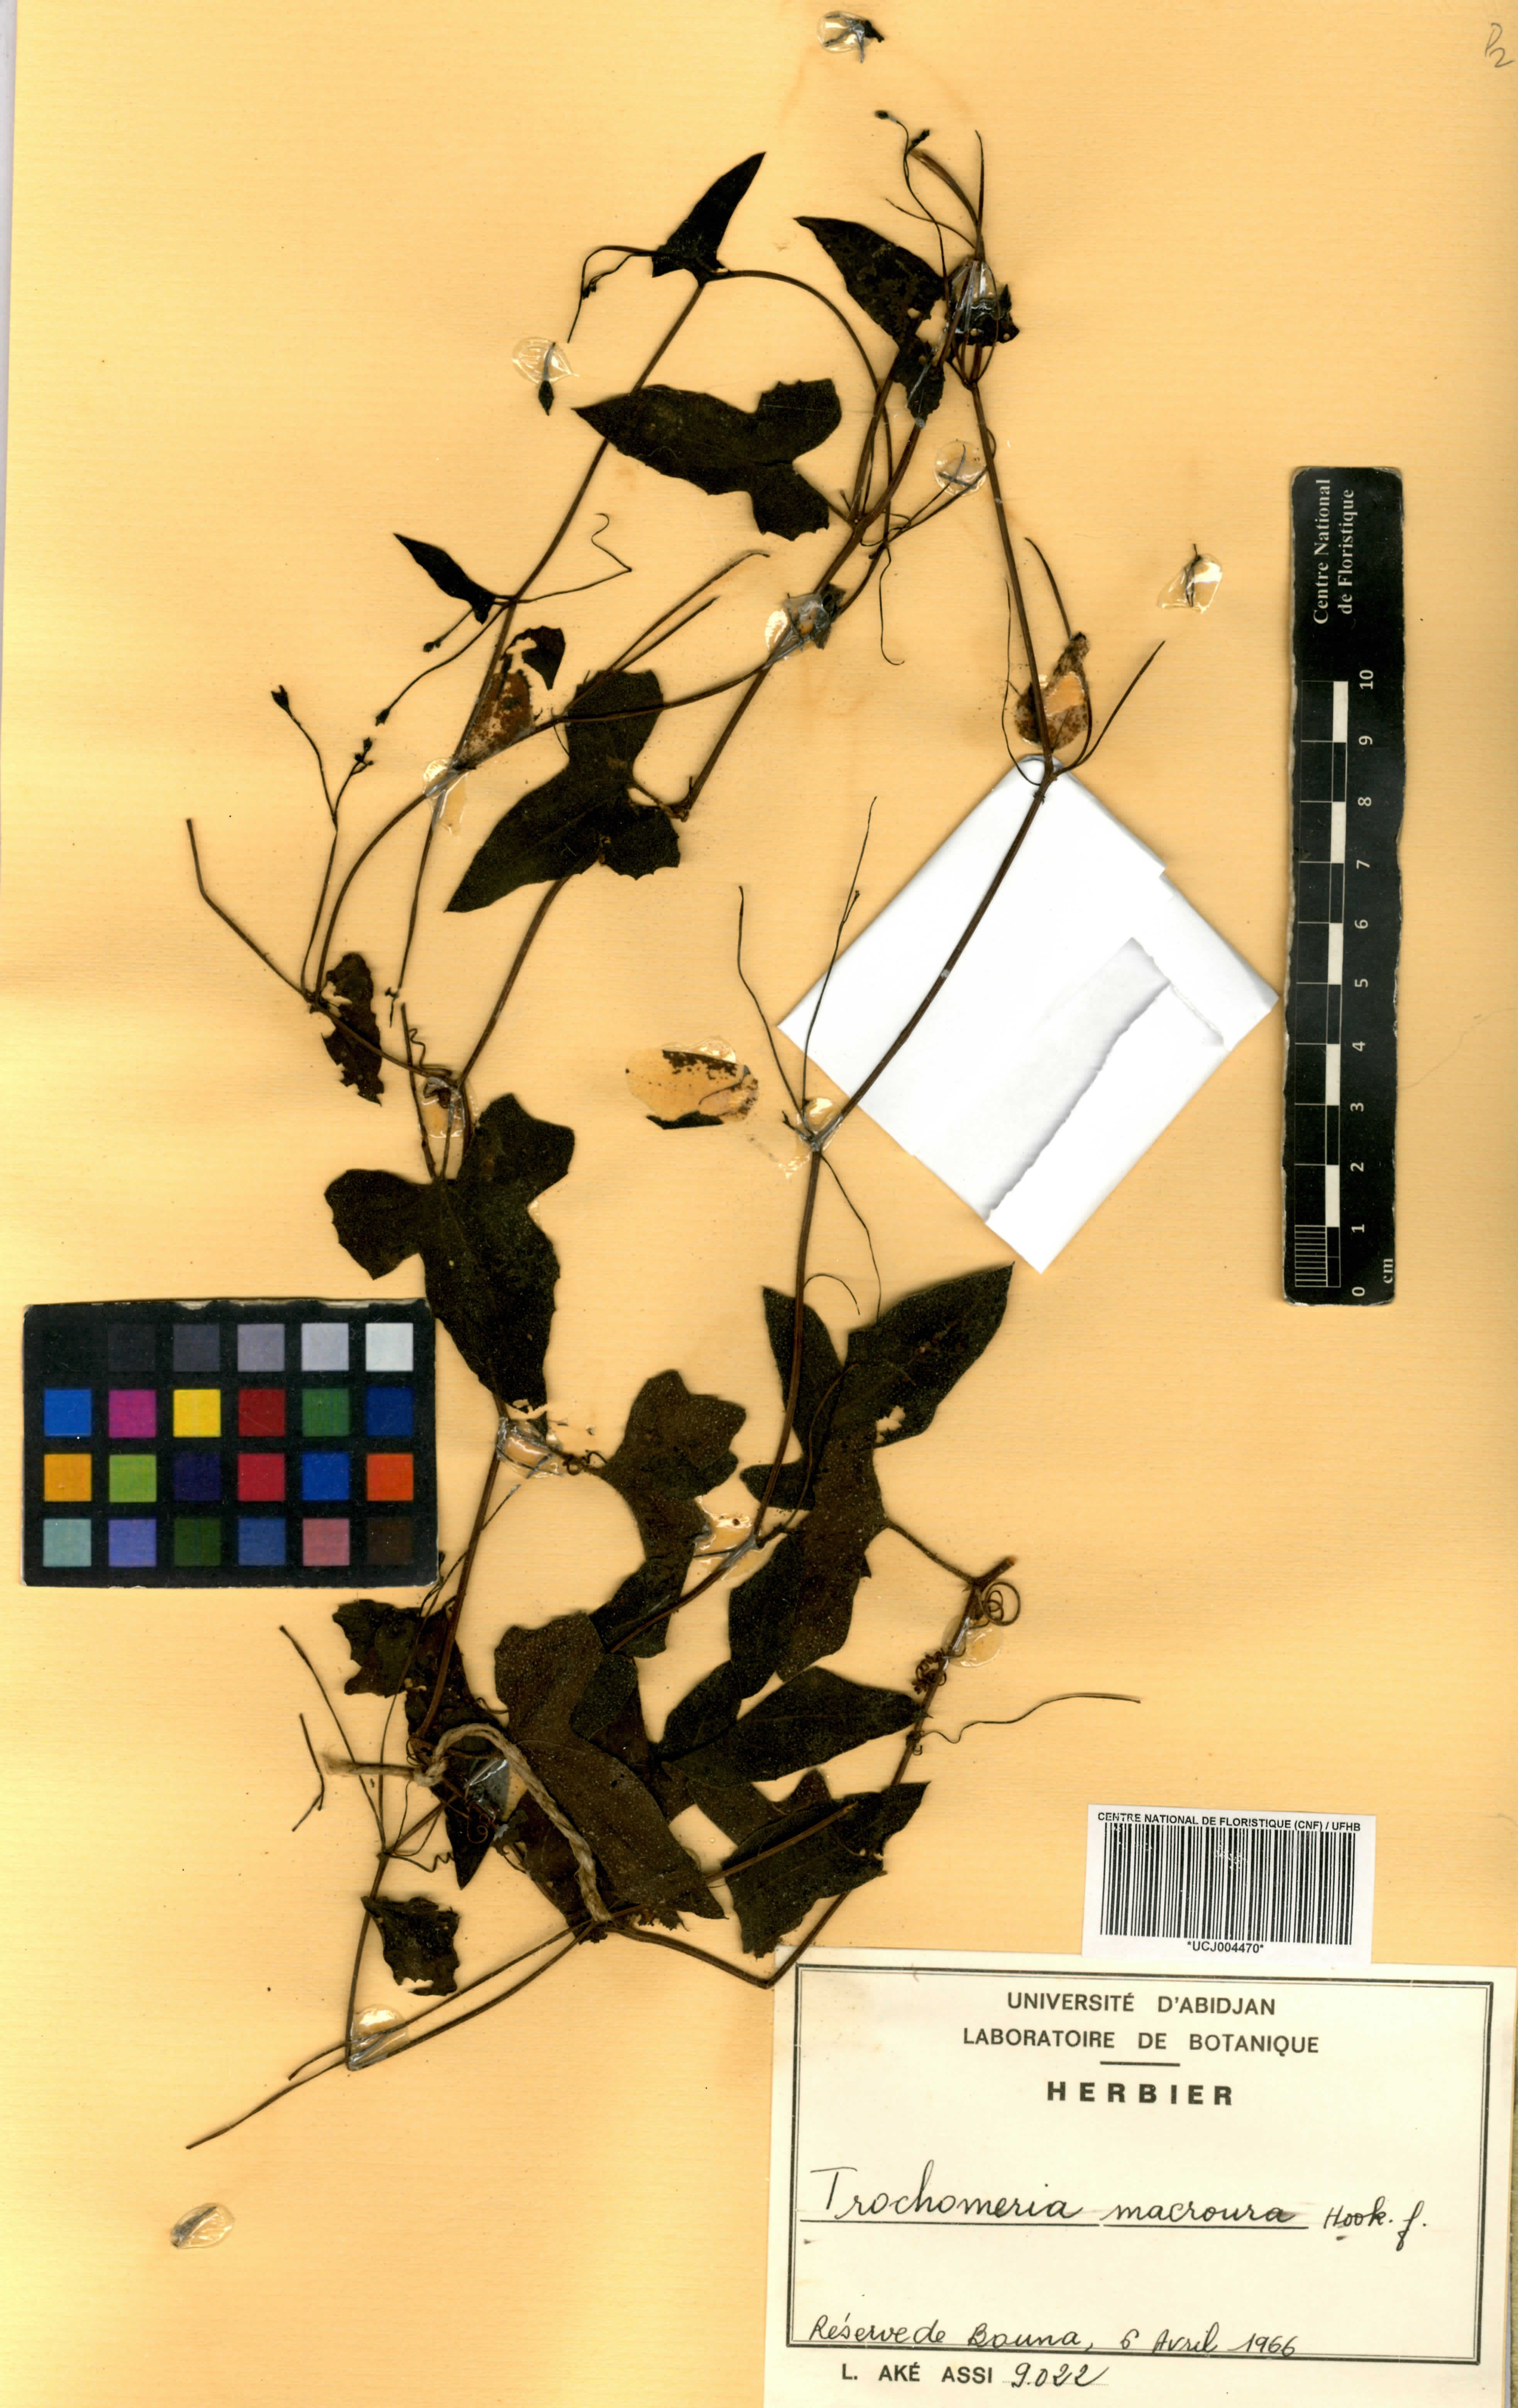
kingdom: Plantae
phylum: Tracheophyta
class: Magnoliopsida
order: Cucurbitales
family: Cucurbitaceae
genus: Trochomeria
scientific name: Trochomeria macrocarpa
